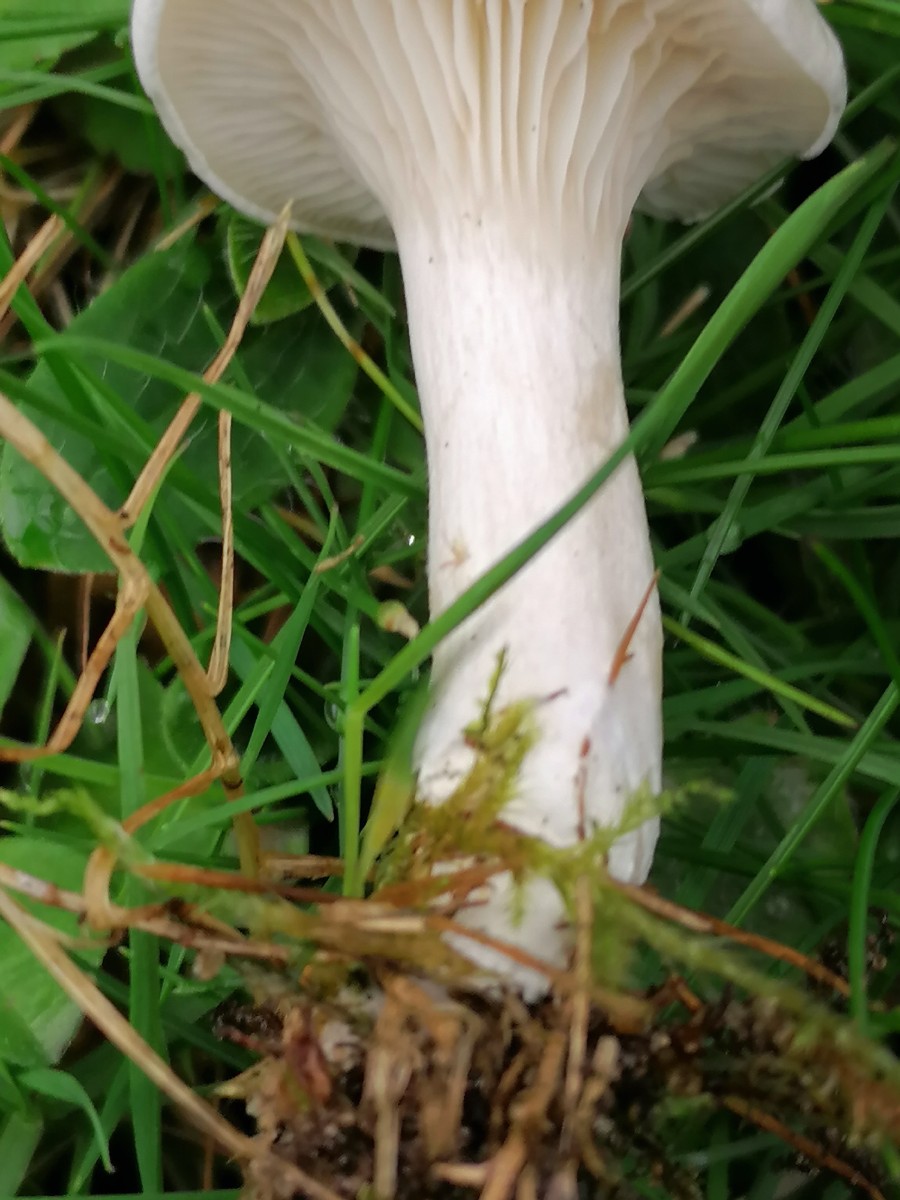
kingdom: Fungi
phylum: Basidiomycota
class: Agaricomycetes
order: Agaricales
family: Entolomataceae
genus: Clitopilus
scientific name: Clitopilus prunulus
